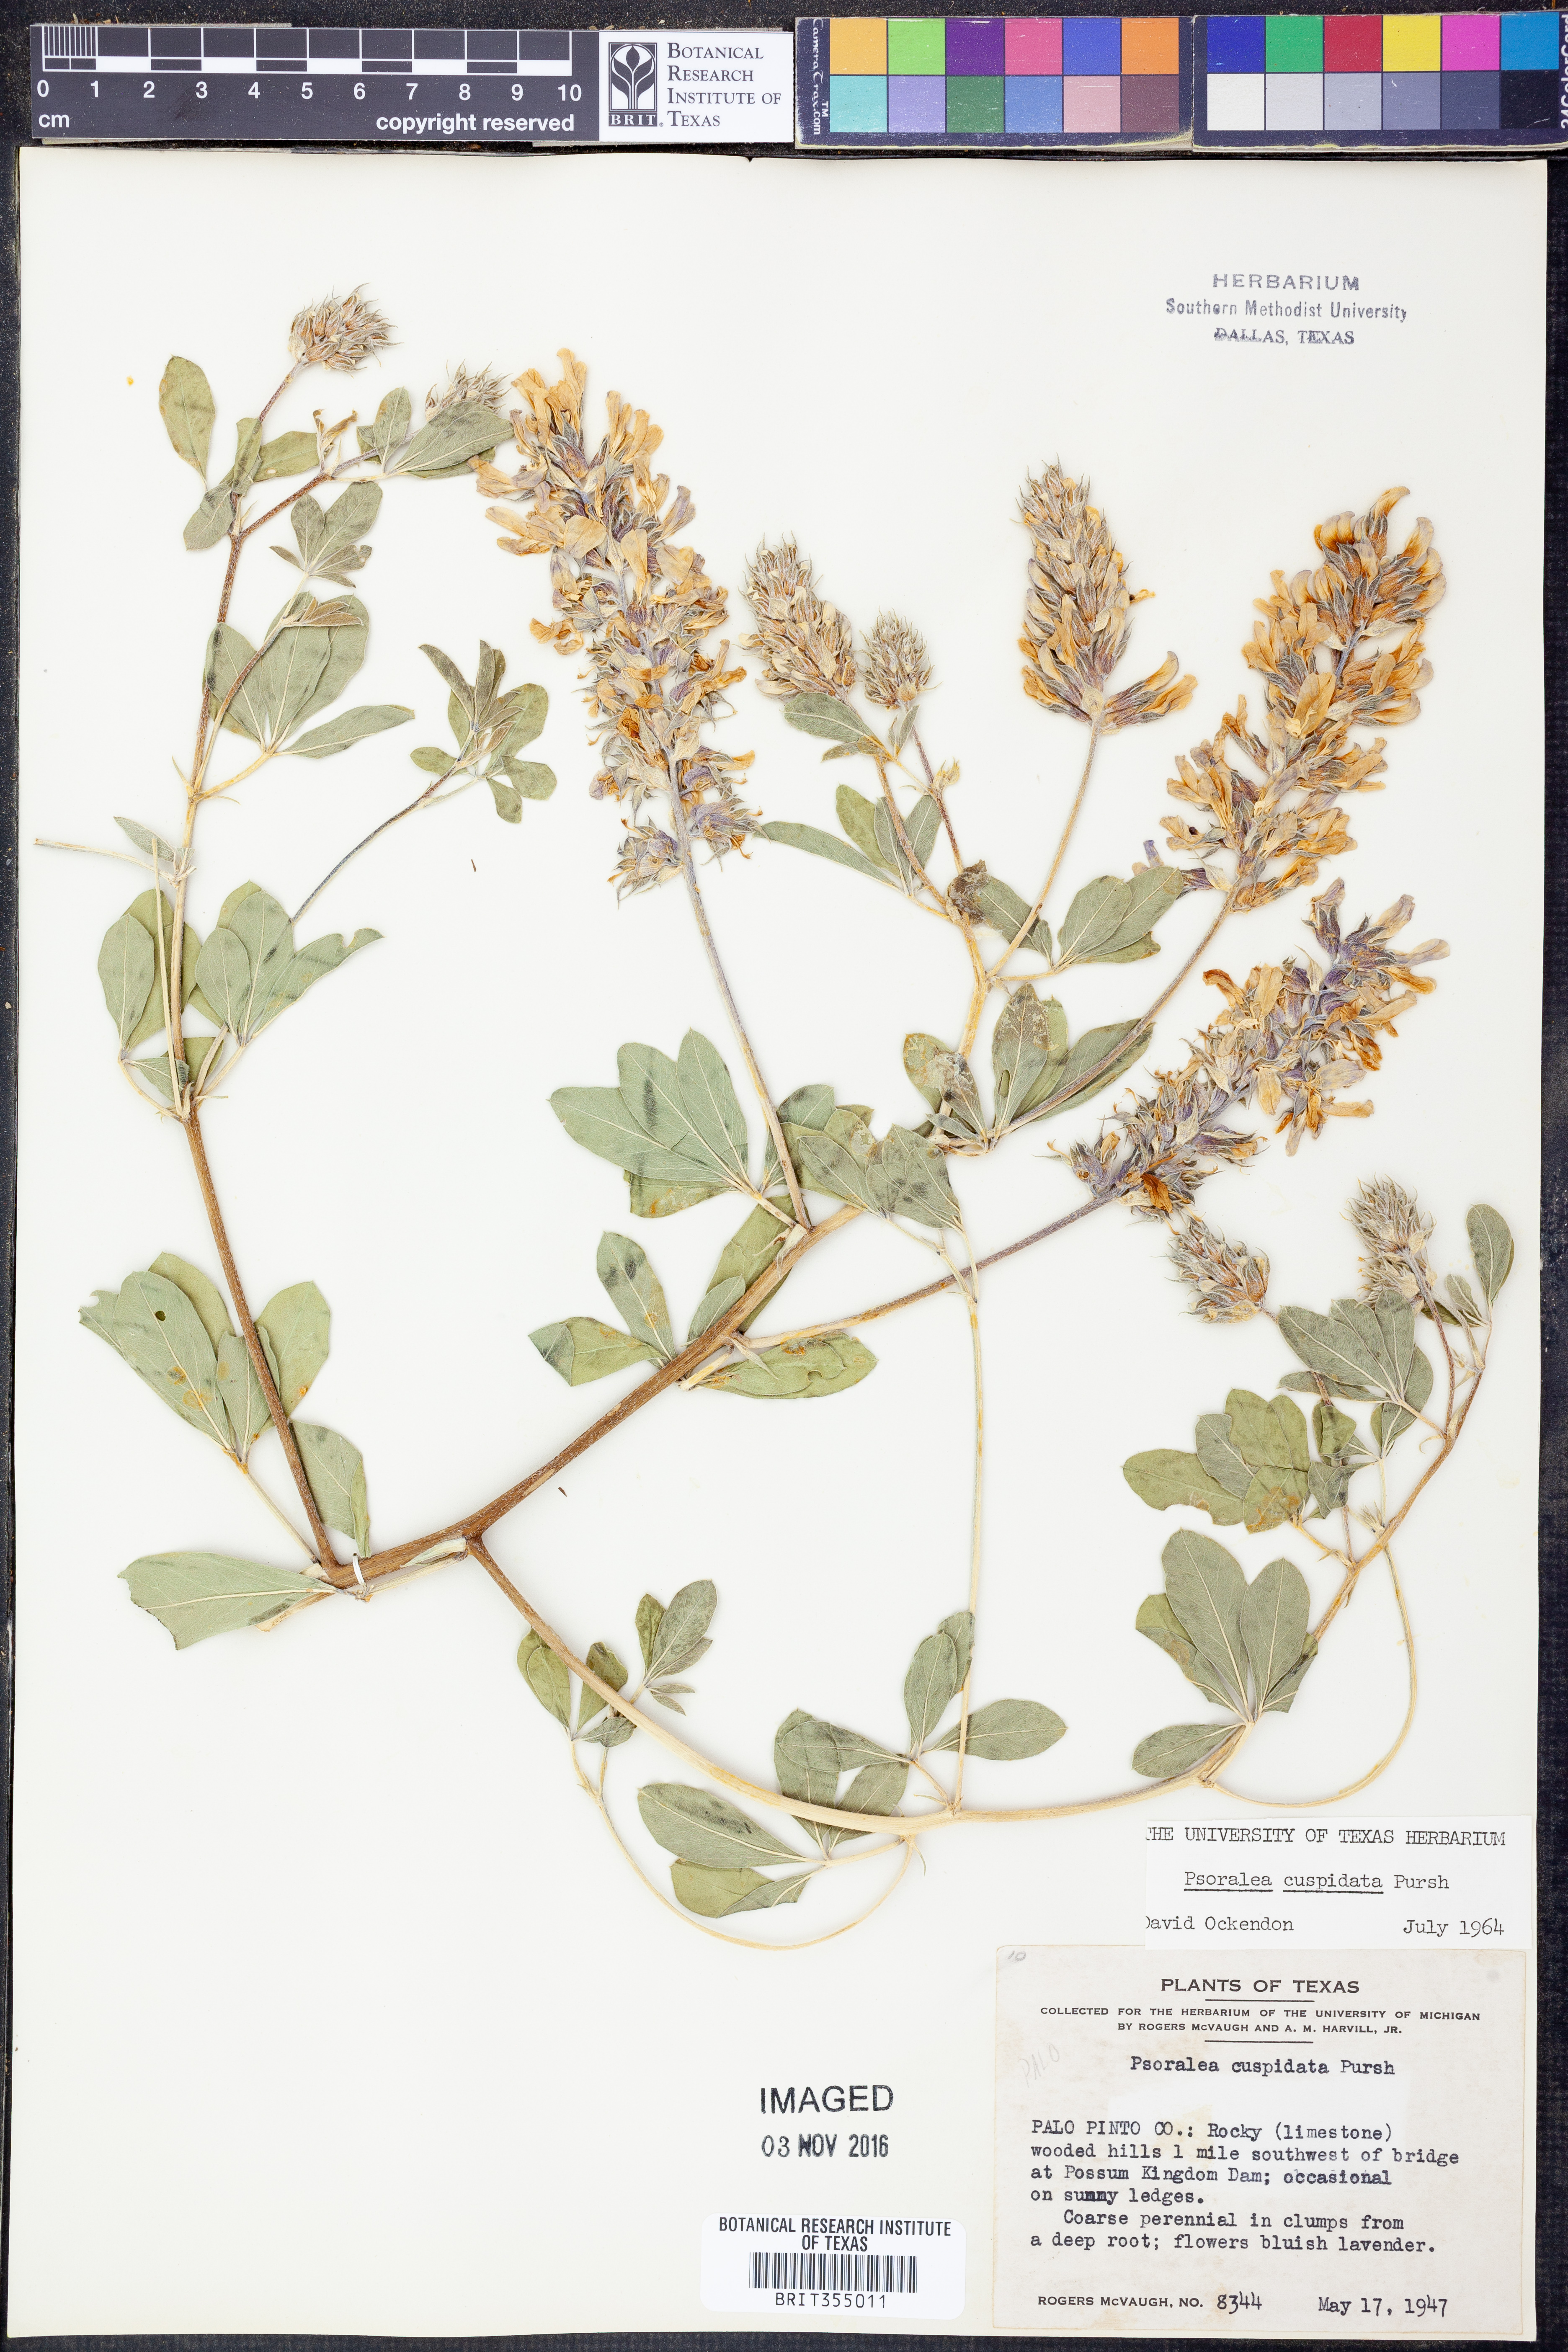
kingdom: Plantae
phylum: Tracheophyta
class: Magnoliopsida
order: Fabales
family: Fabaceae
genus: Pediomelum
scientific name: Pediomelum cuspidatum
